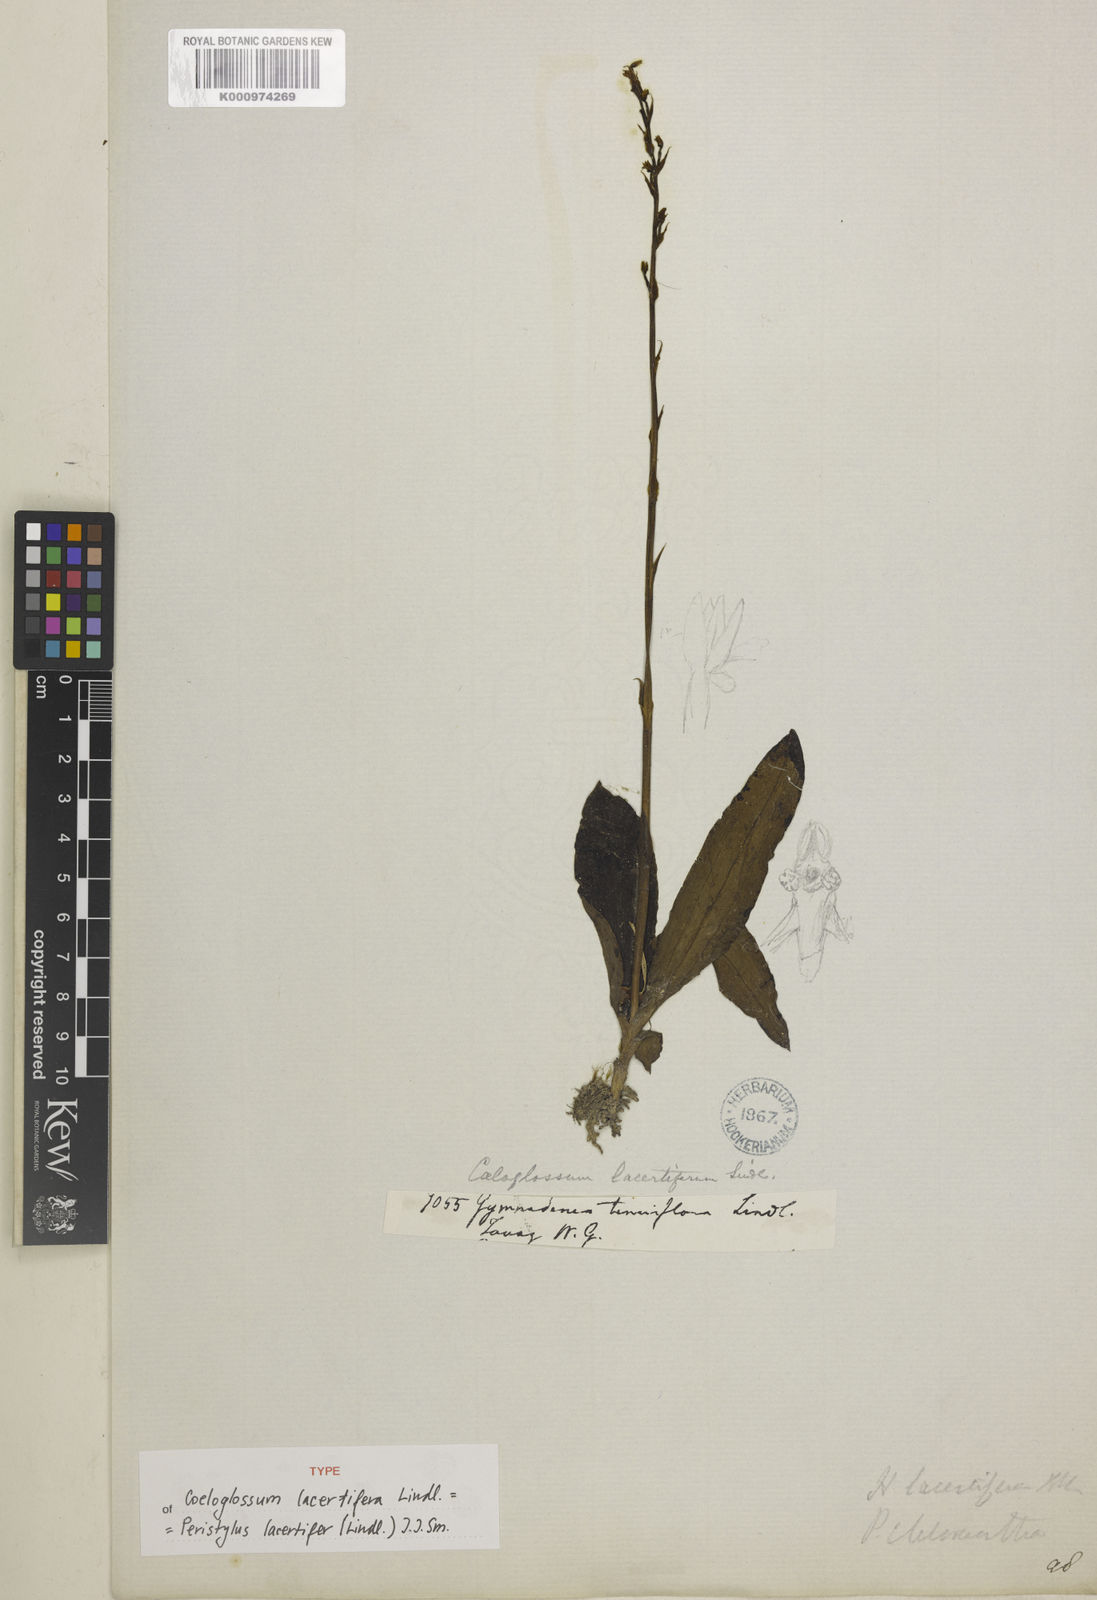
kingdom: Plantae
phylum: Tracheophyta
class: Liliopsida
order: Asparagales
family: Orchidaceae
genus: Peristylus
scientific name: Peristylus lacertifer
